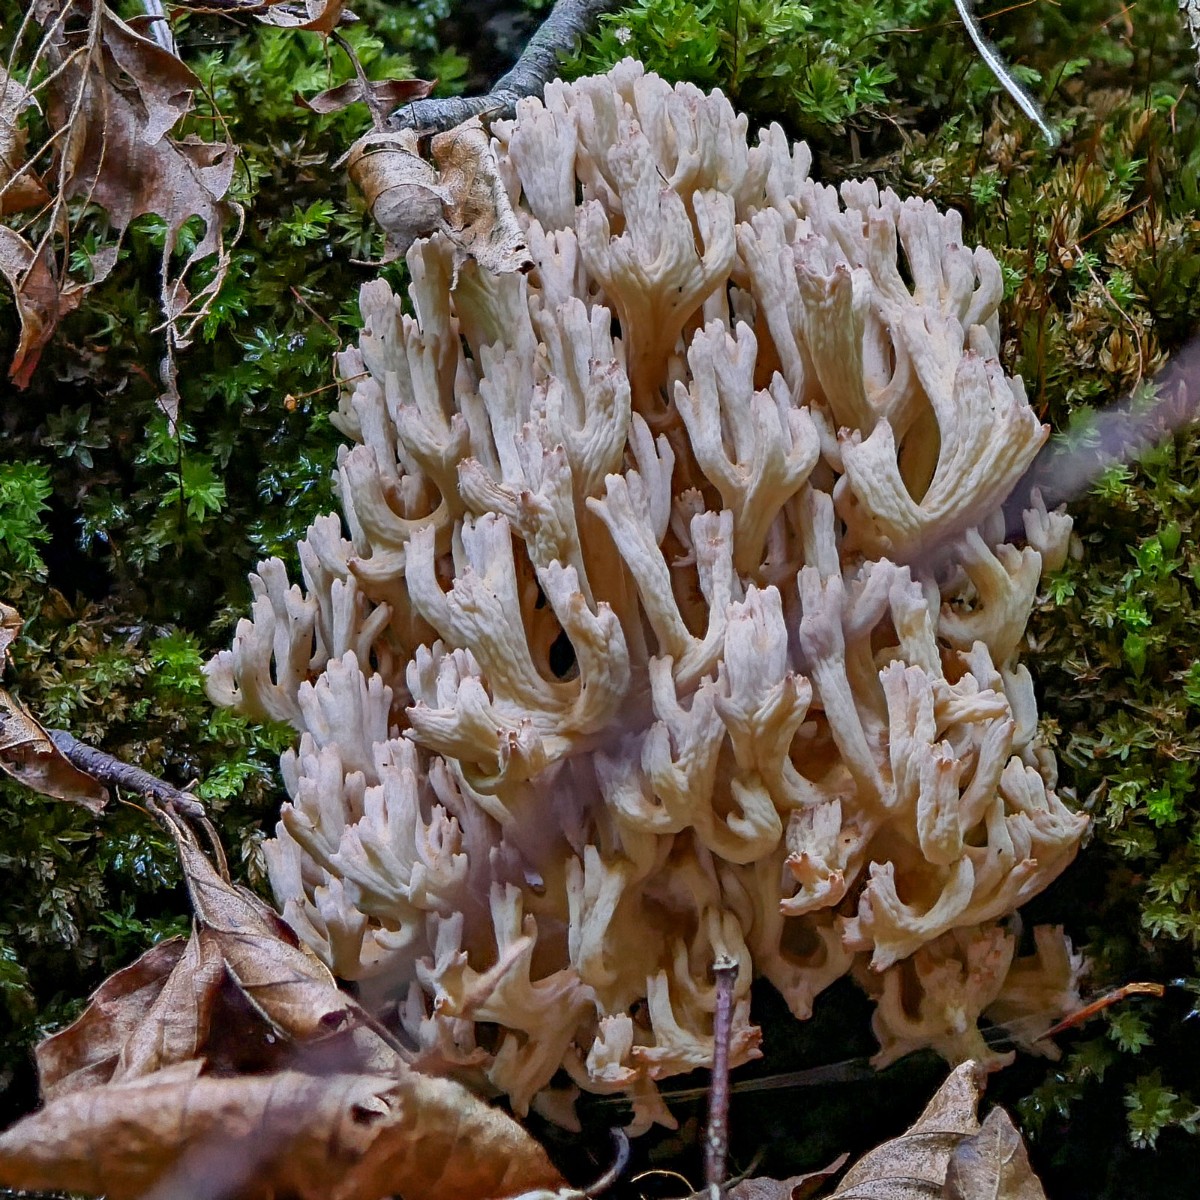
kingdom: Fungi
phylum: Basidiomycota
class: Agaricomycetes
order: Gomphales
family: Gomphaceae
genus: Ramaria
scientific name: Ramaria
